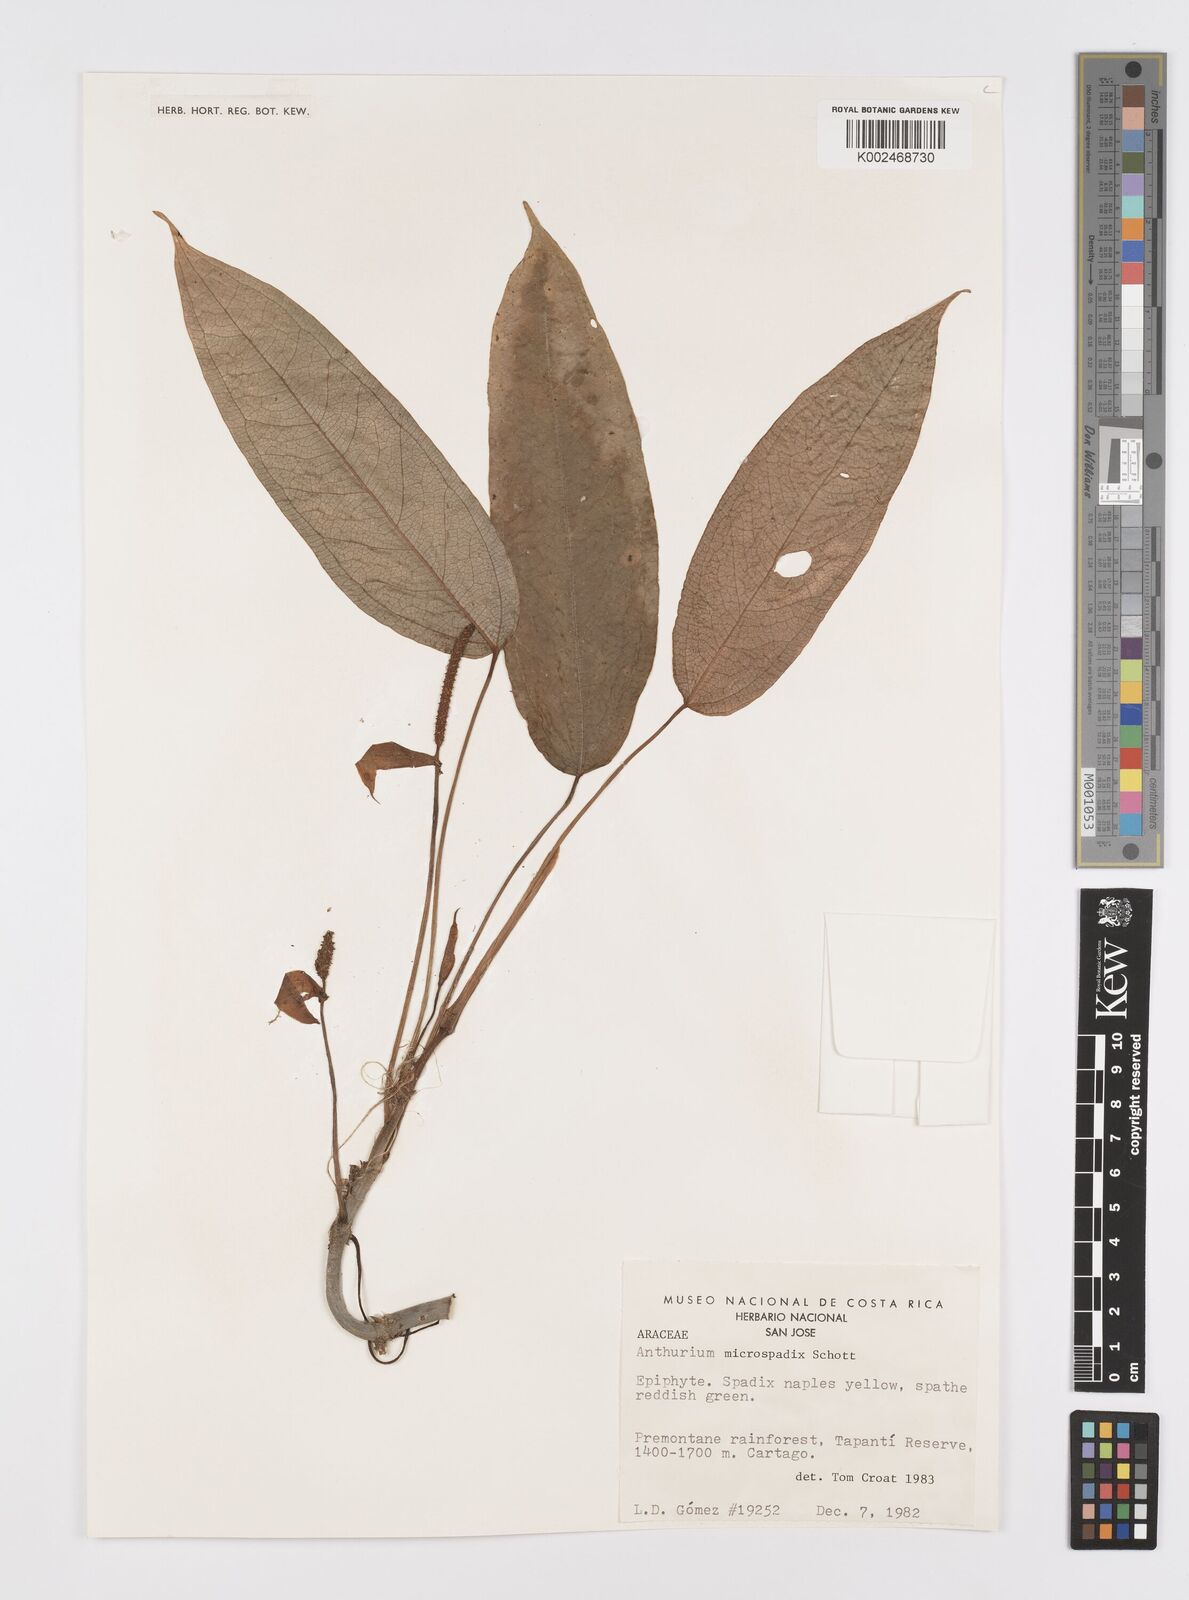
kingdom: Plantae
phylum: Tracheophyta
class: Liliopsida
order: Alismatales
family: Araceae
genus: Anthurium
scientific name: Anthurium microspadix
